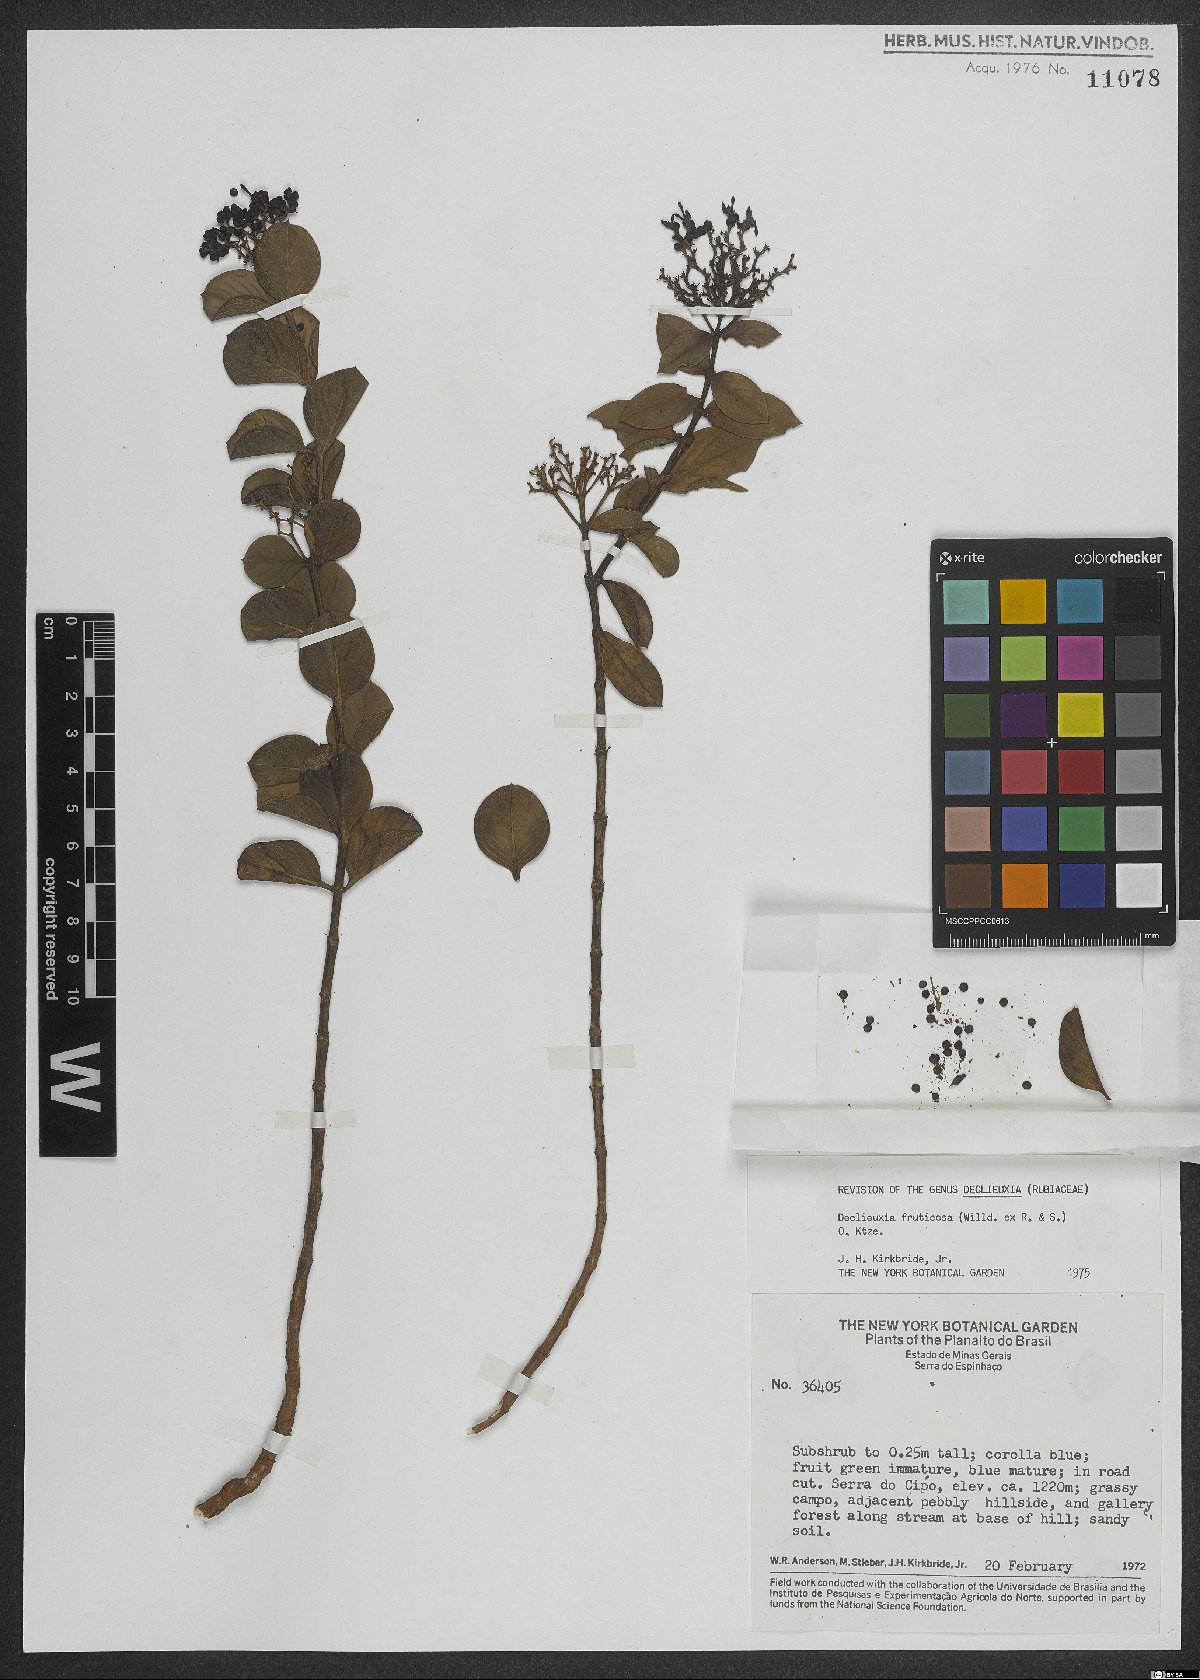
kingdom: Plantae
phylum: Tracheophyta
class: Magnoliopsida
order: Gentianales
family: Rubiaceae
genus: Declieuxia
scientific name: Declieuxia fruticosa
